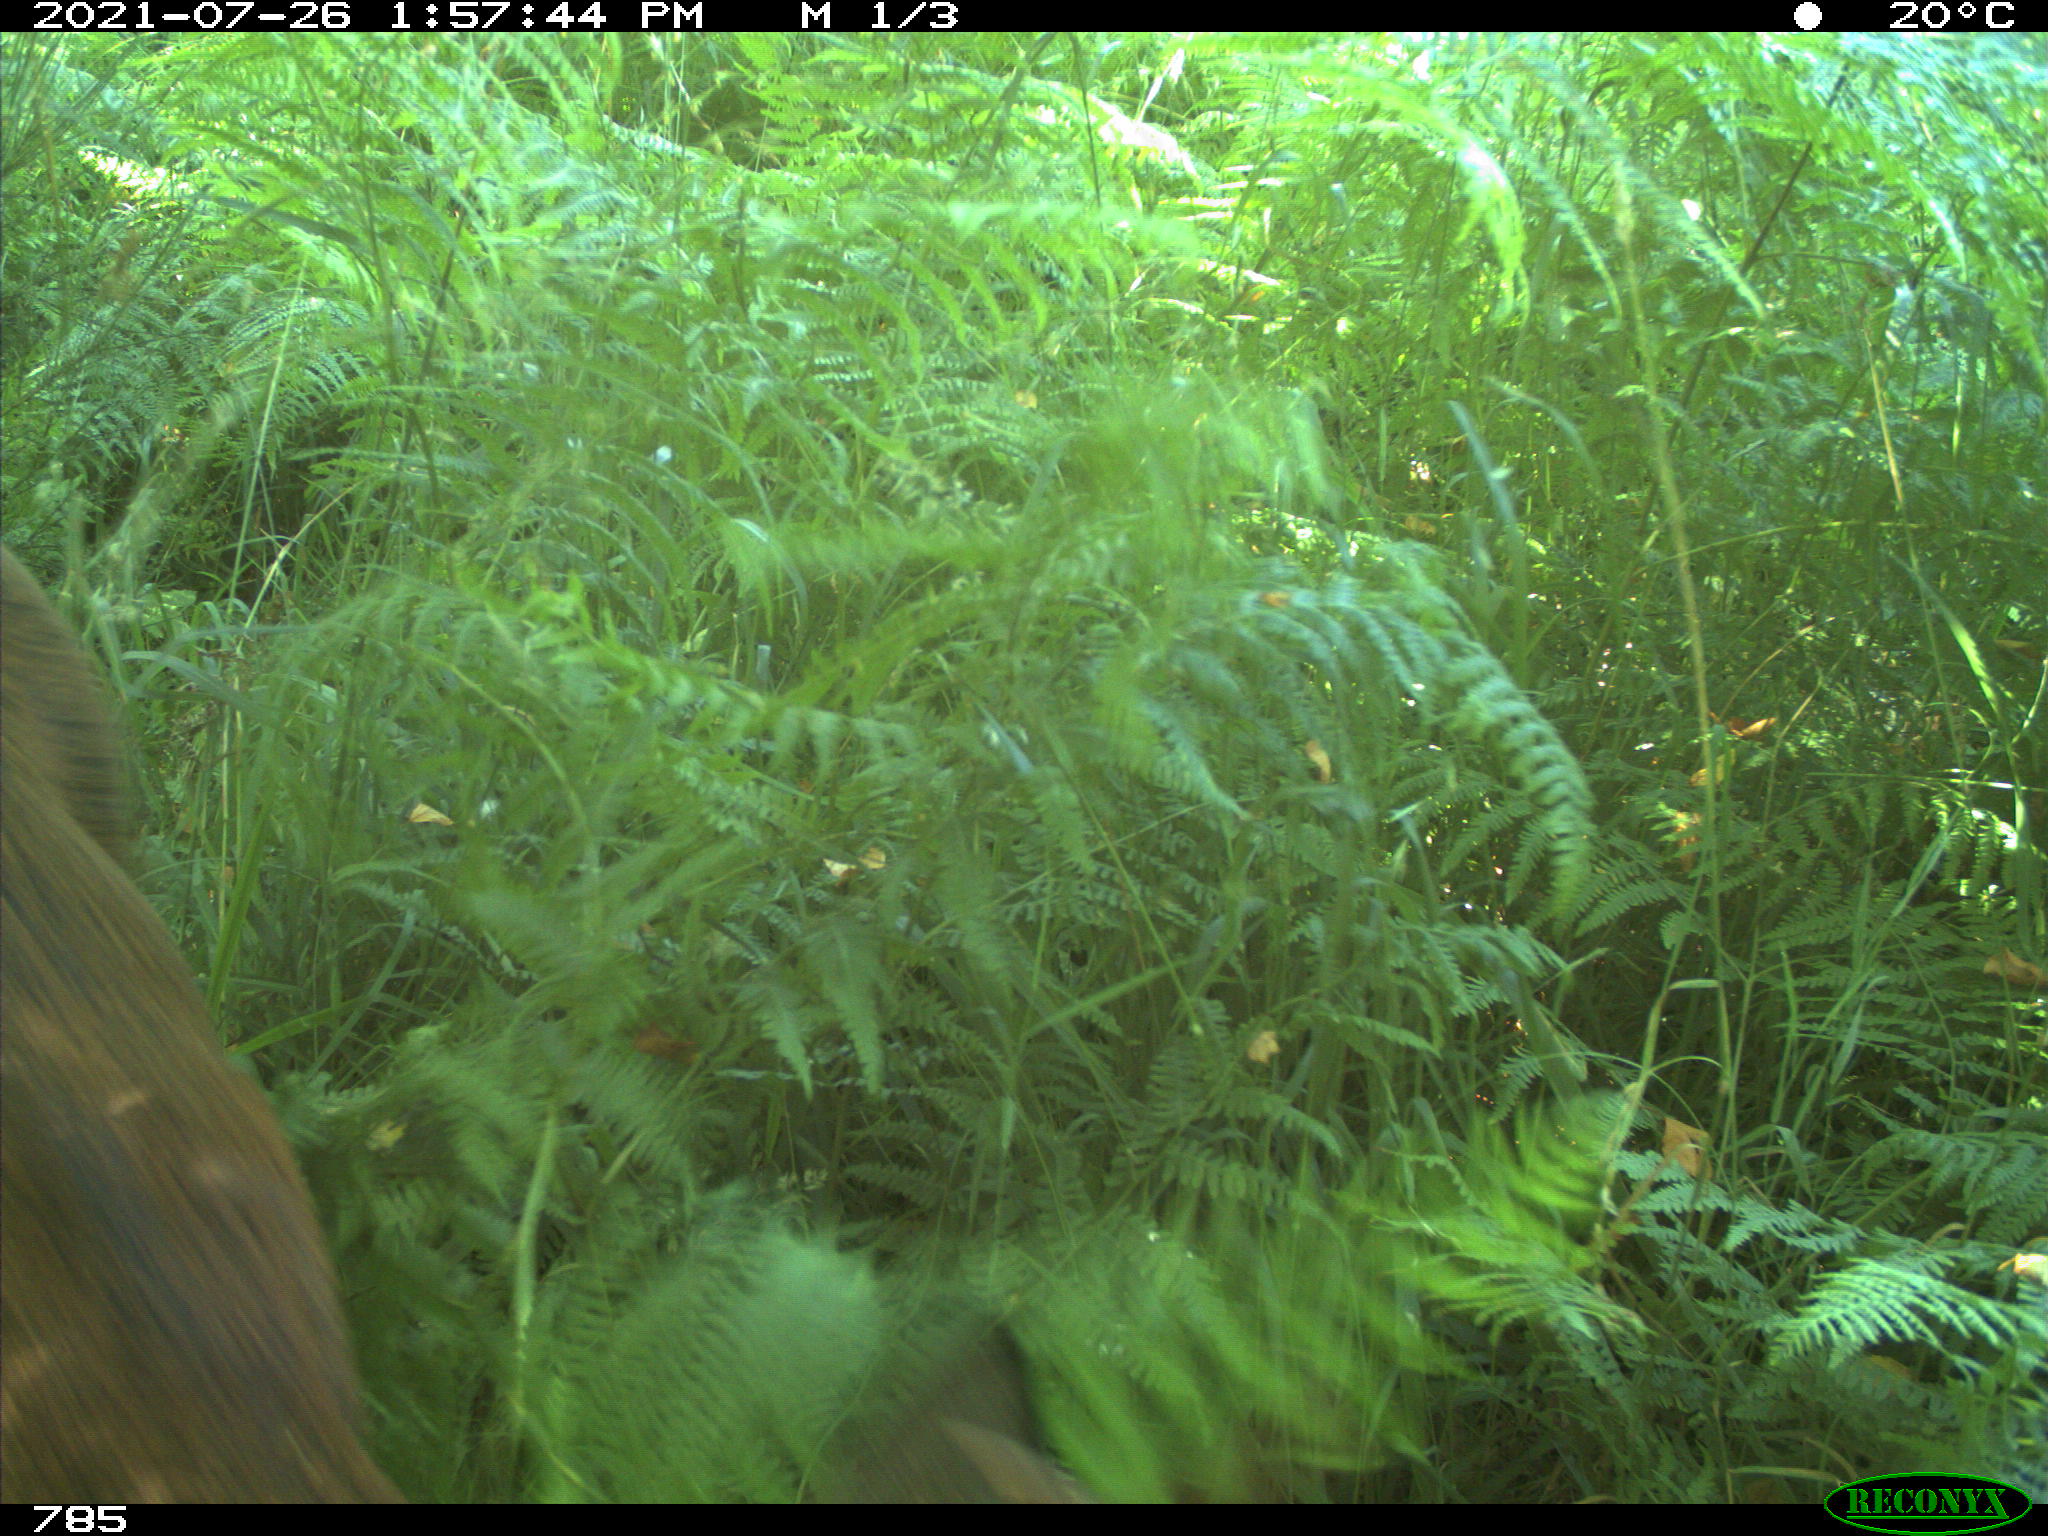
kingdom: Animalia
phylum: Chordata
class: Mammalia
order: Artiodactyla
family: Cervidae
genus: Capreolus
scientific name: Capreolus capreolus
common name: Western roe deer
